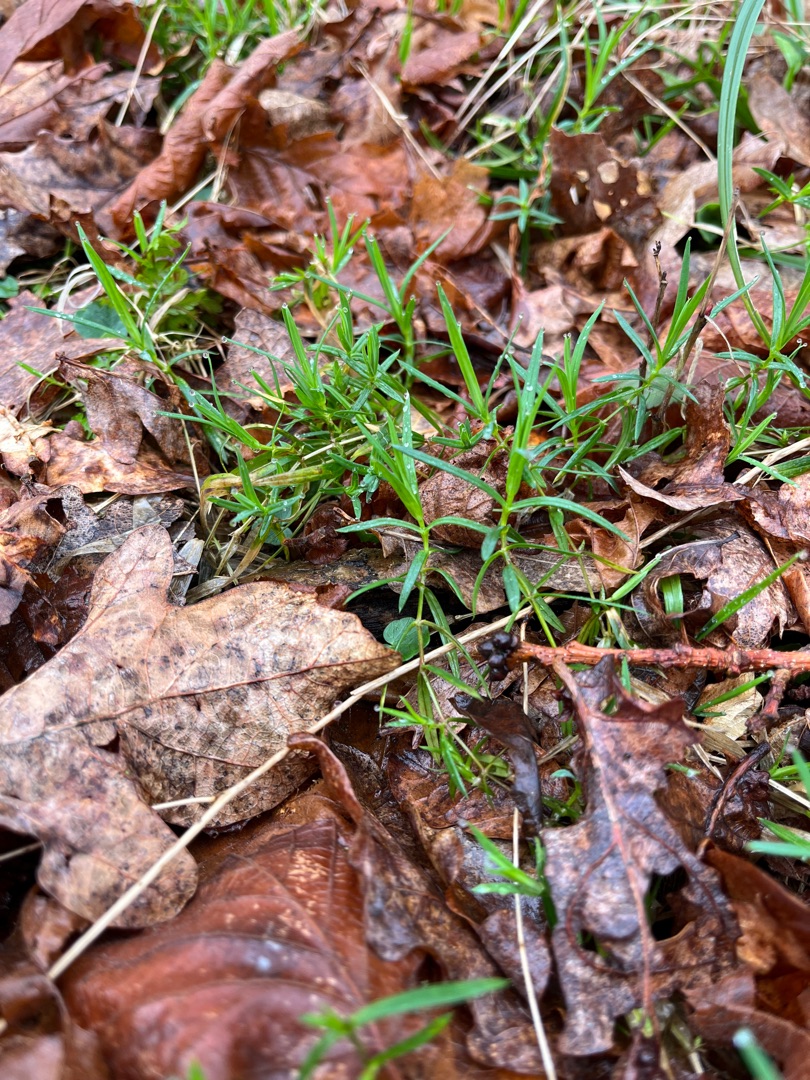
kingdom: Plantae
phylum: Tracheophyta
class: Magnoliopsida
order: Caryophyllales
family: Caryophyllaceae
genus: Rabelera
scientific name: Rabelera holostea
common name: Stor fladstjerne
